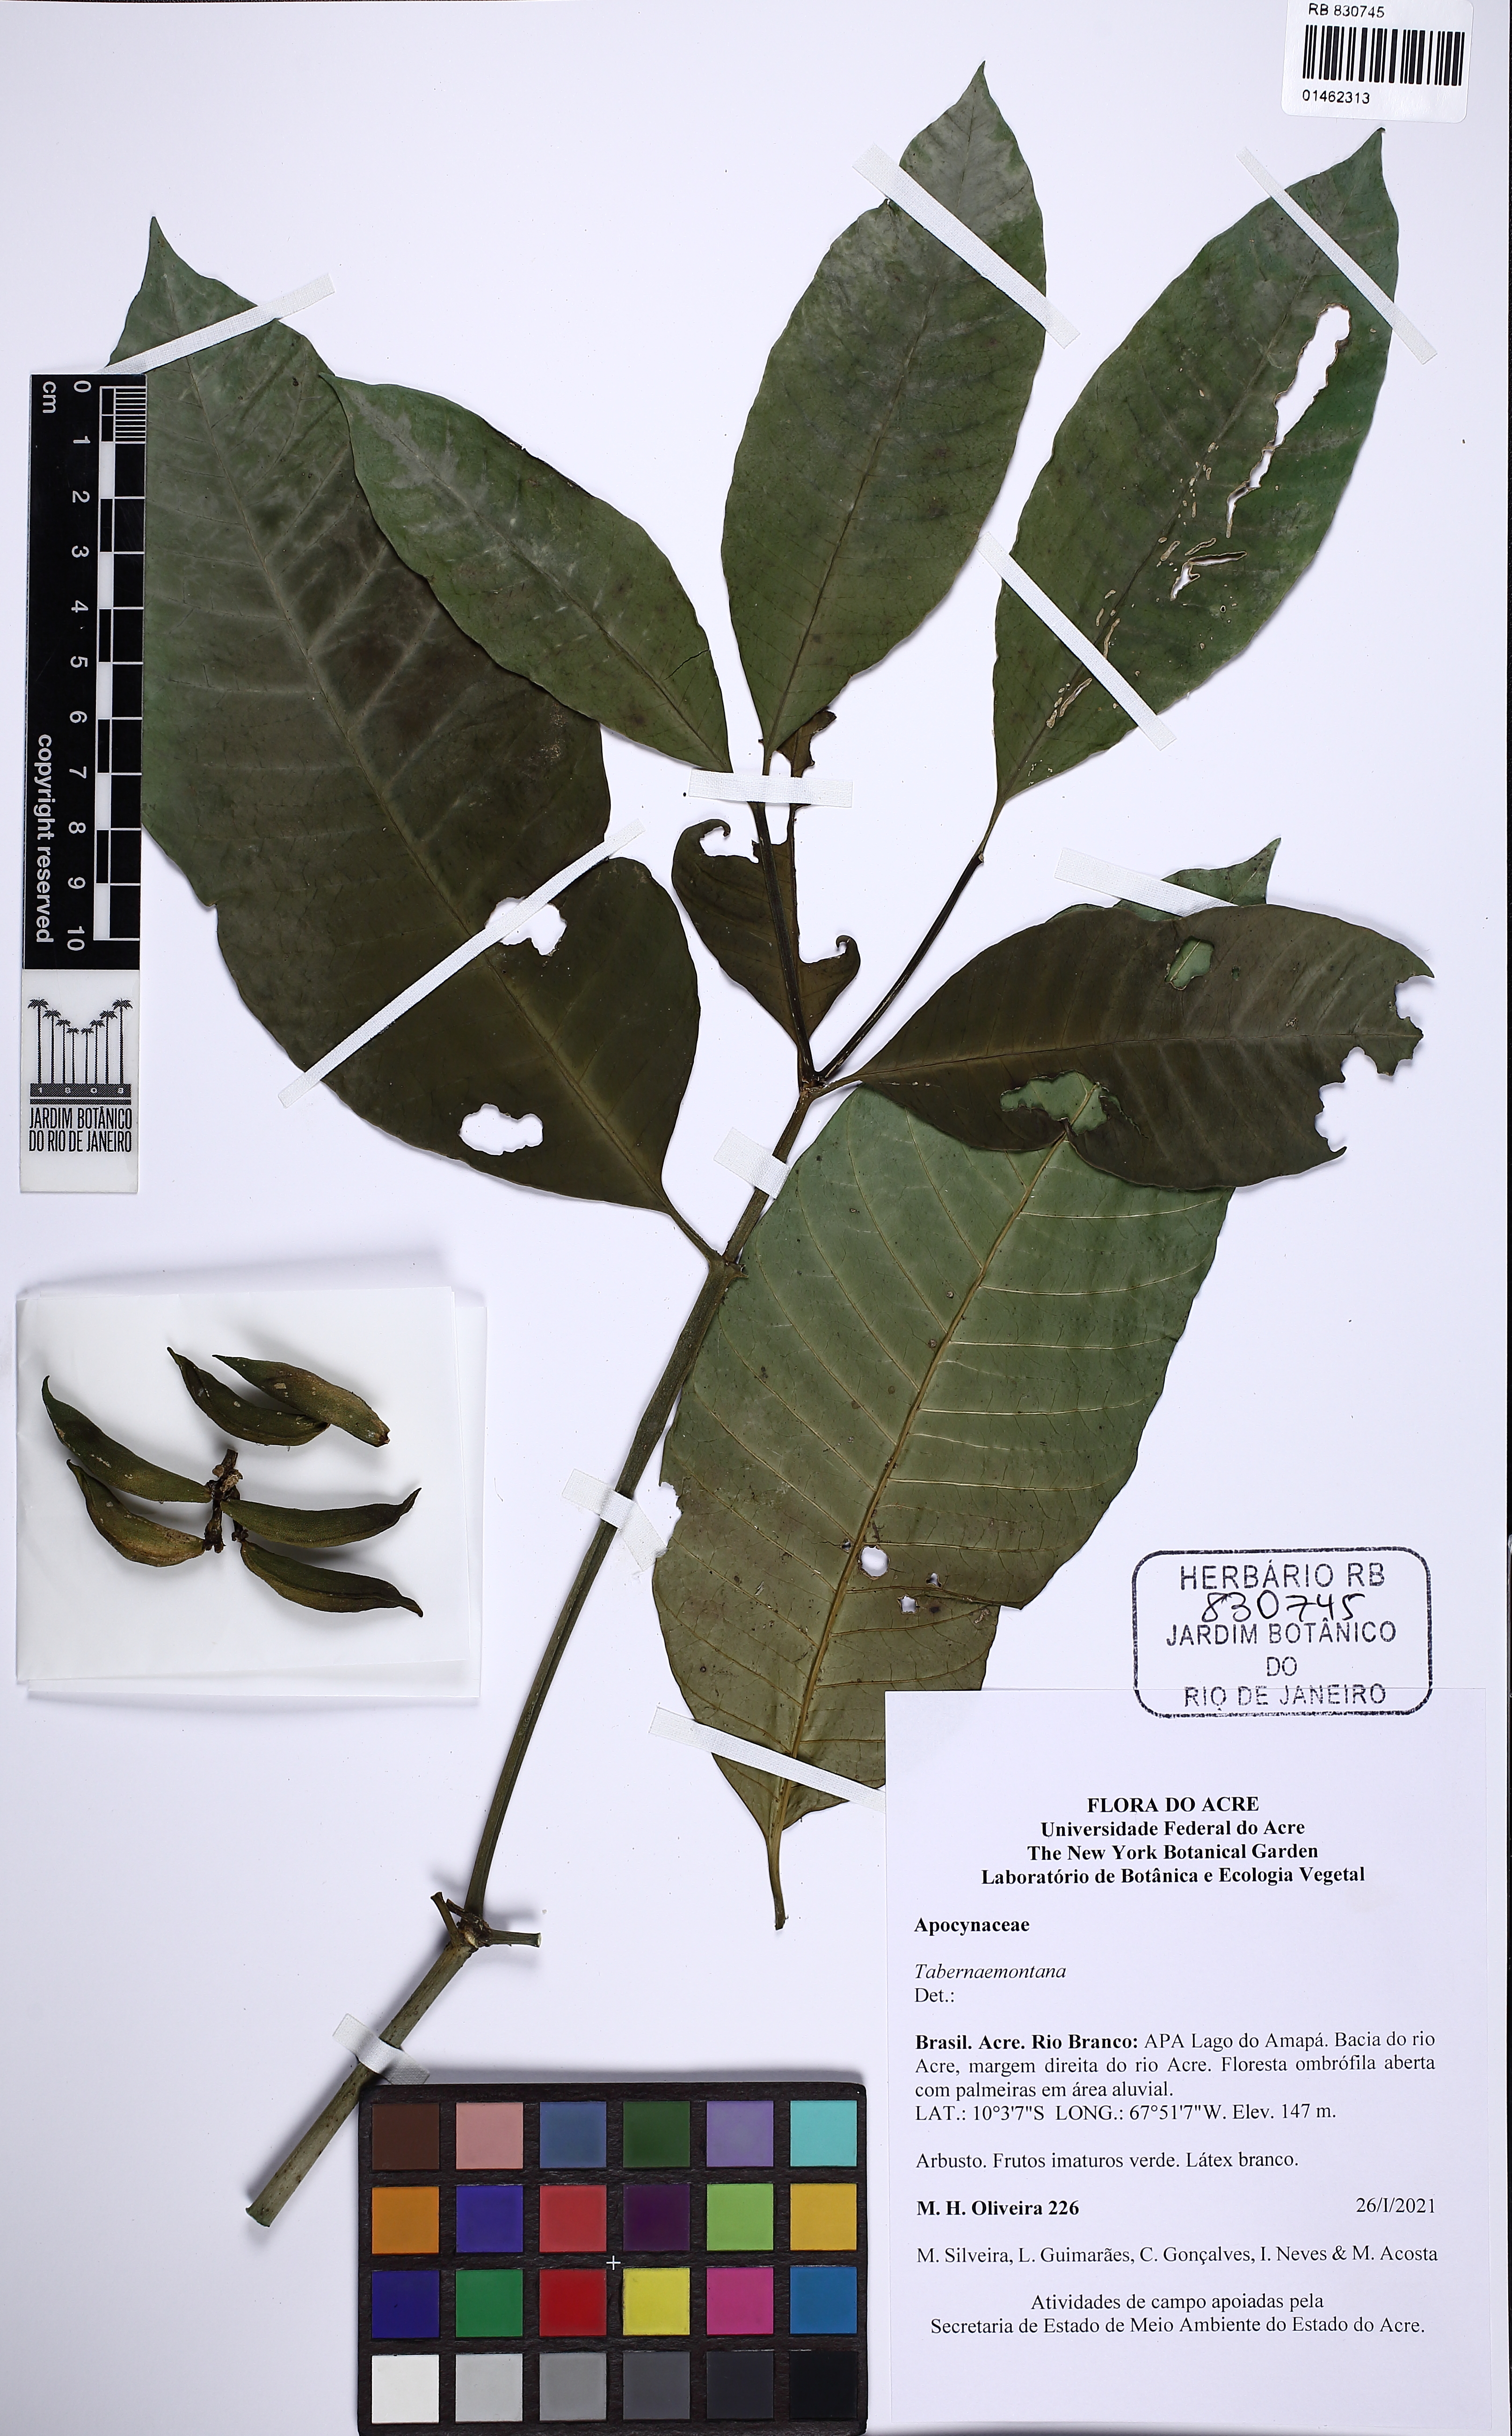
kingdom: Plantae
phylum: Tracheophyta
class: Magnoliopsida
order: Gentianales
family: Apocynaceae
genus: Tabernaemontana
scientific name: Tabernaemontana
